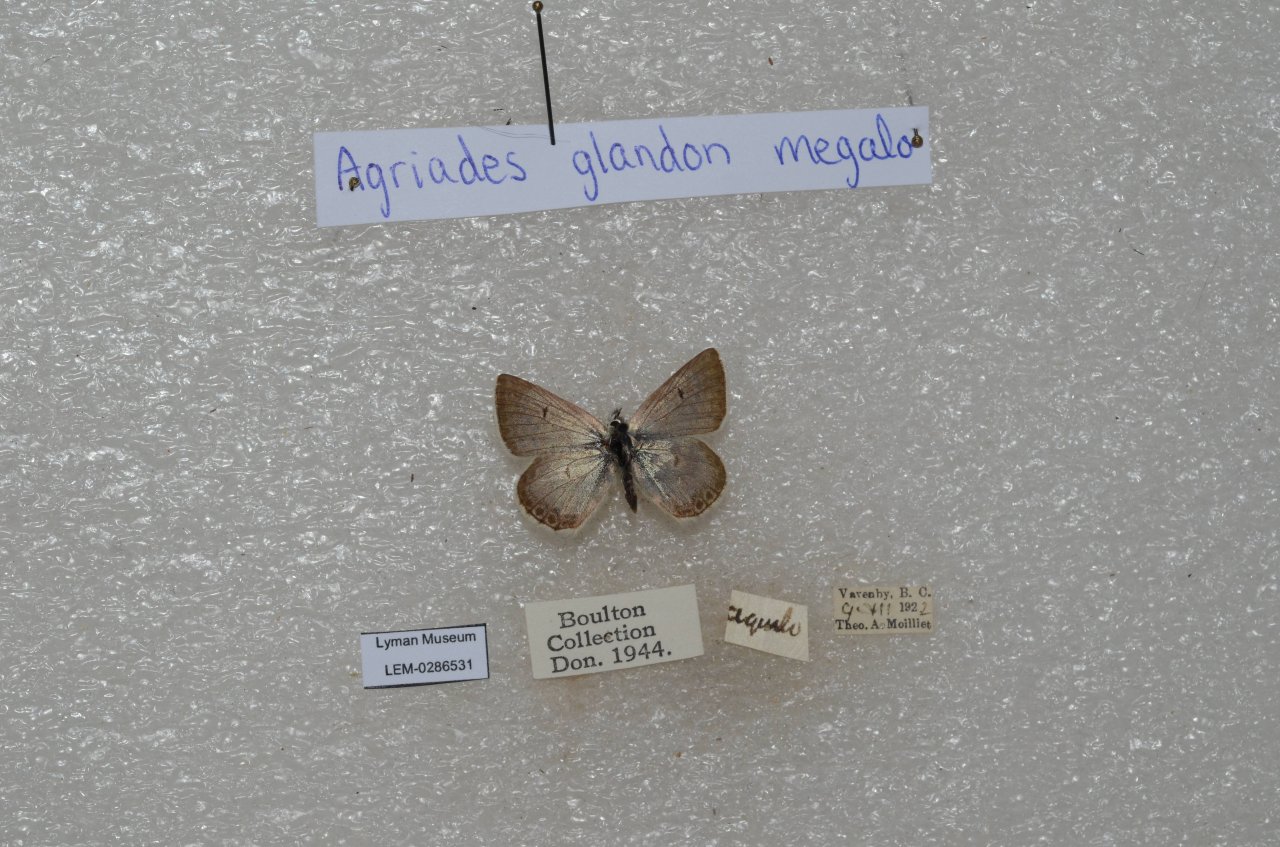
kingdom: Animalia
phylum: Arthropoda
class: Insecta
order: Lepidoptera
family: Lycaenidae
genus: Agriades
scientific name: Agriades glandon
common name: Arctic Blue
